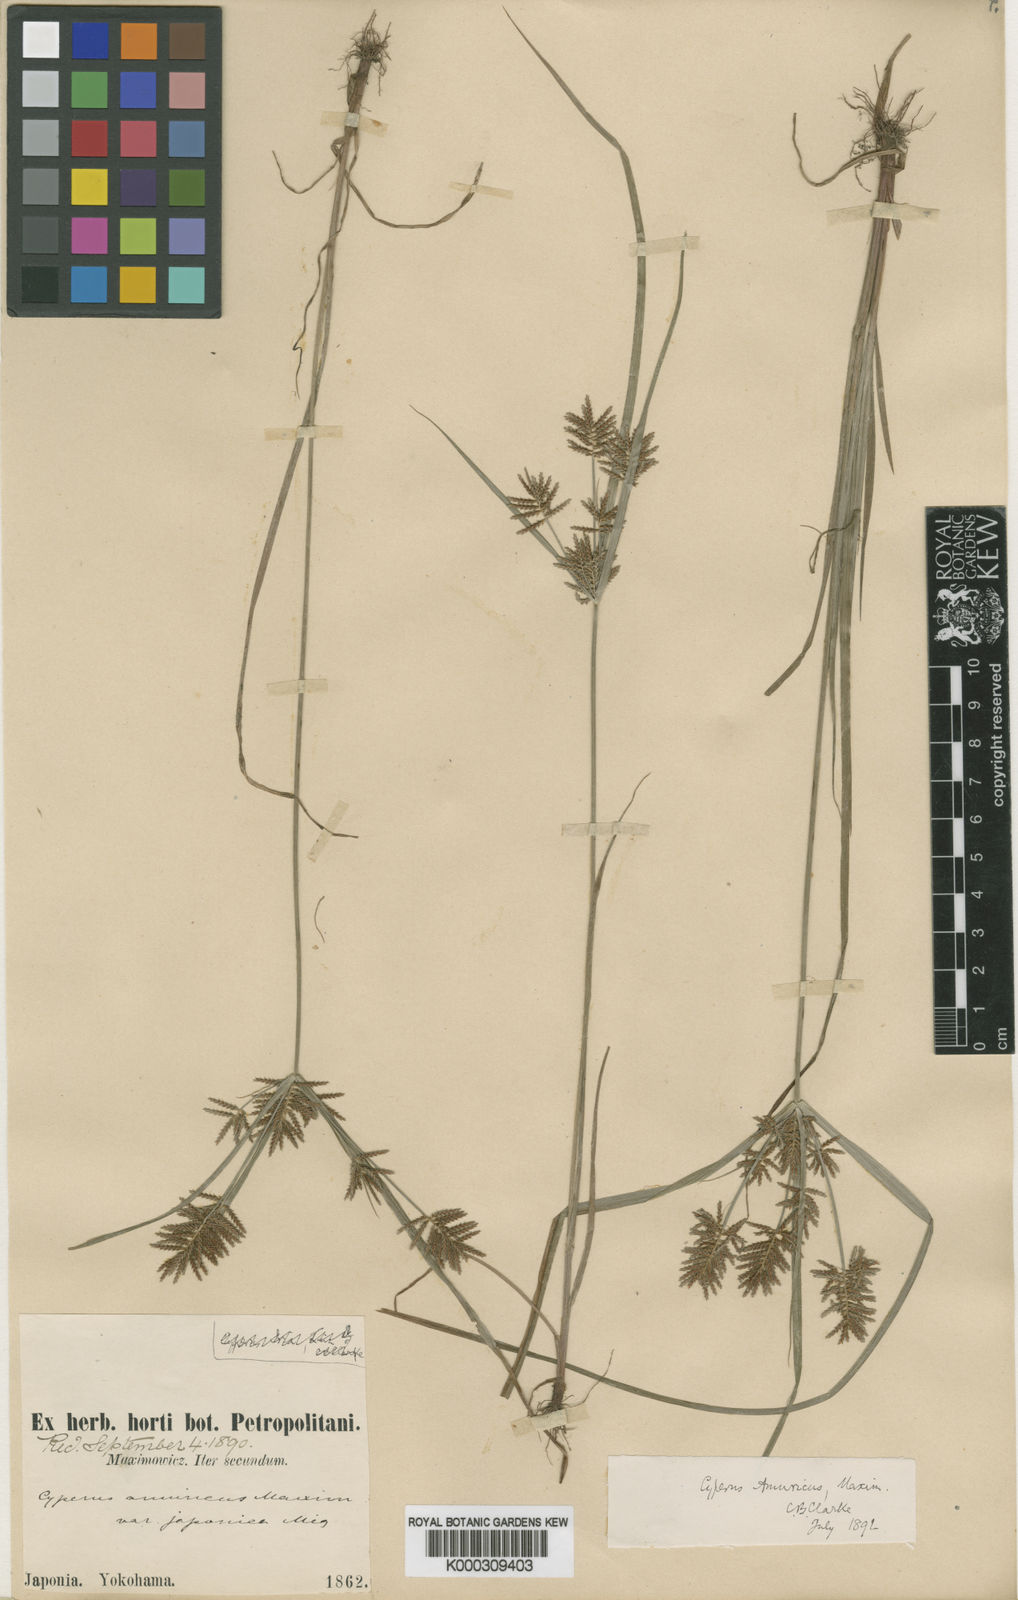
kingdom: Plantae
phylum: Tracheophyta
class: Liliopsida
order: Poales
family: Cyperaceae
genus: Cyperus
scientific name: Cyperus amuricus
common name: Asian flatsedge
